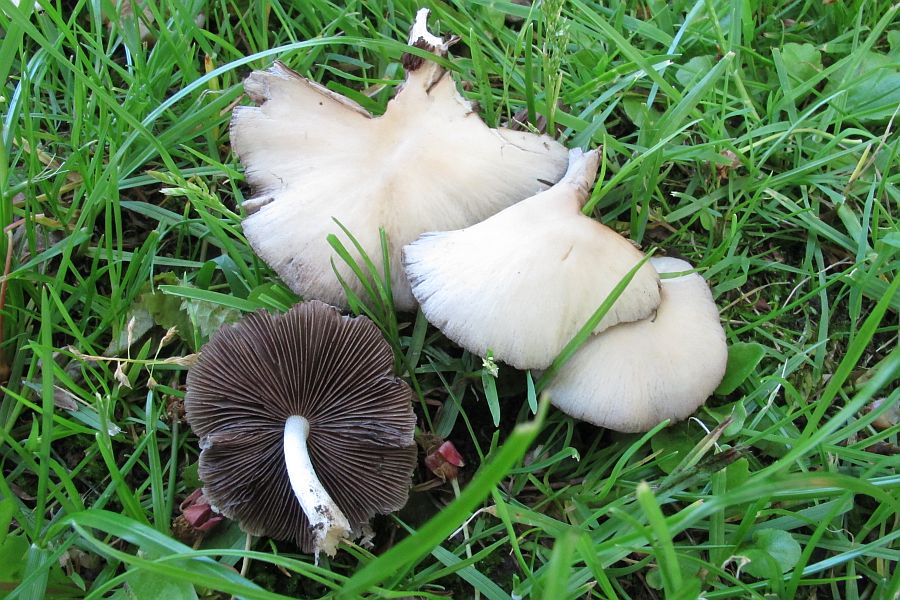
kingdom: Fungi
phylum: Basidiomycota
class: Agaricomycetes
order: Agaricales
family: Psathyrellaceae
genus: Candolleomyces
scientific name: Candolleomyces candolleanus
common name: Candolles mørkhat
